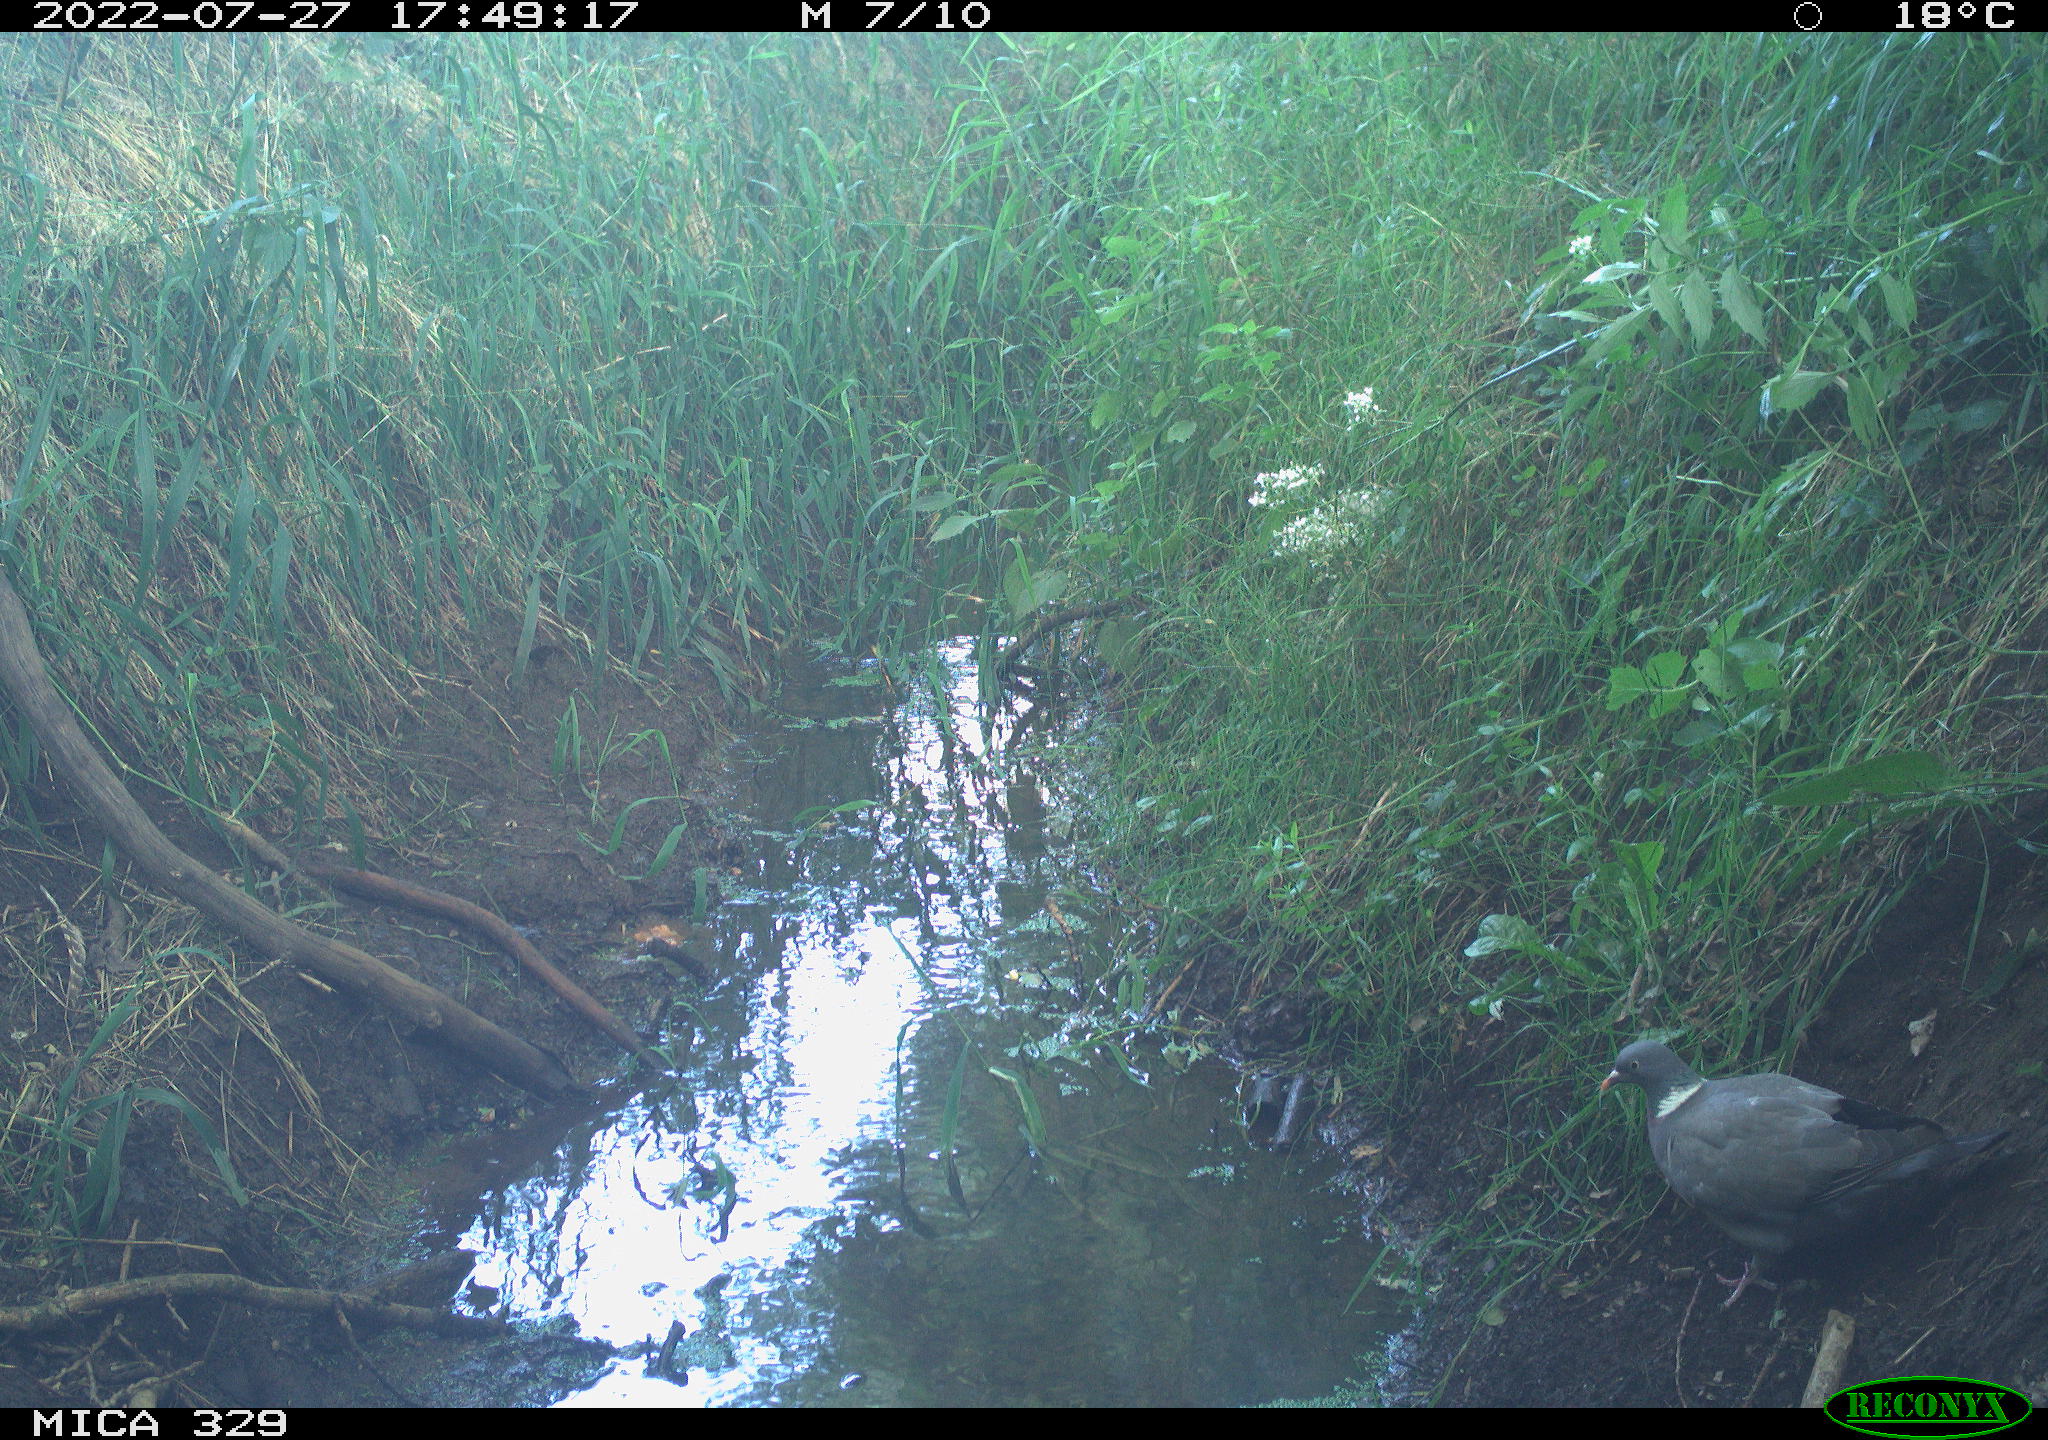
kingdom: Animalia
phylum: Chordata
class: Aves
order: Columbiformes
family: Columbidae
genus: Columba
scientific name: Columba palumbus
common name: Common wood pigeon
